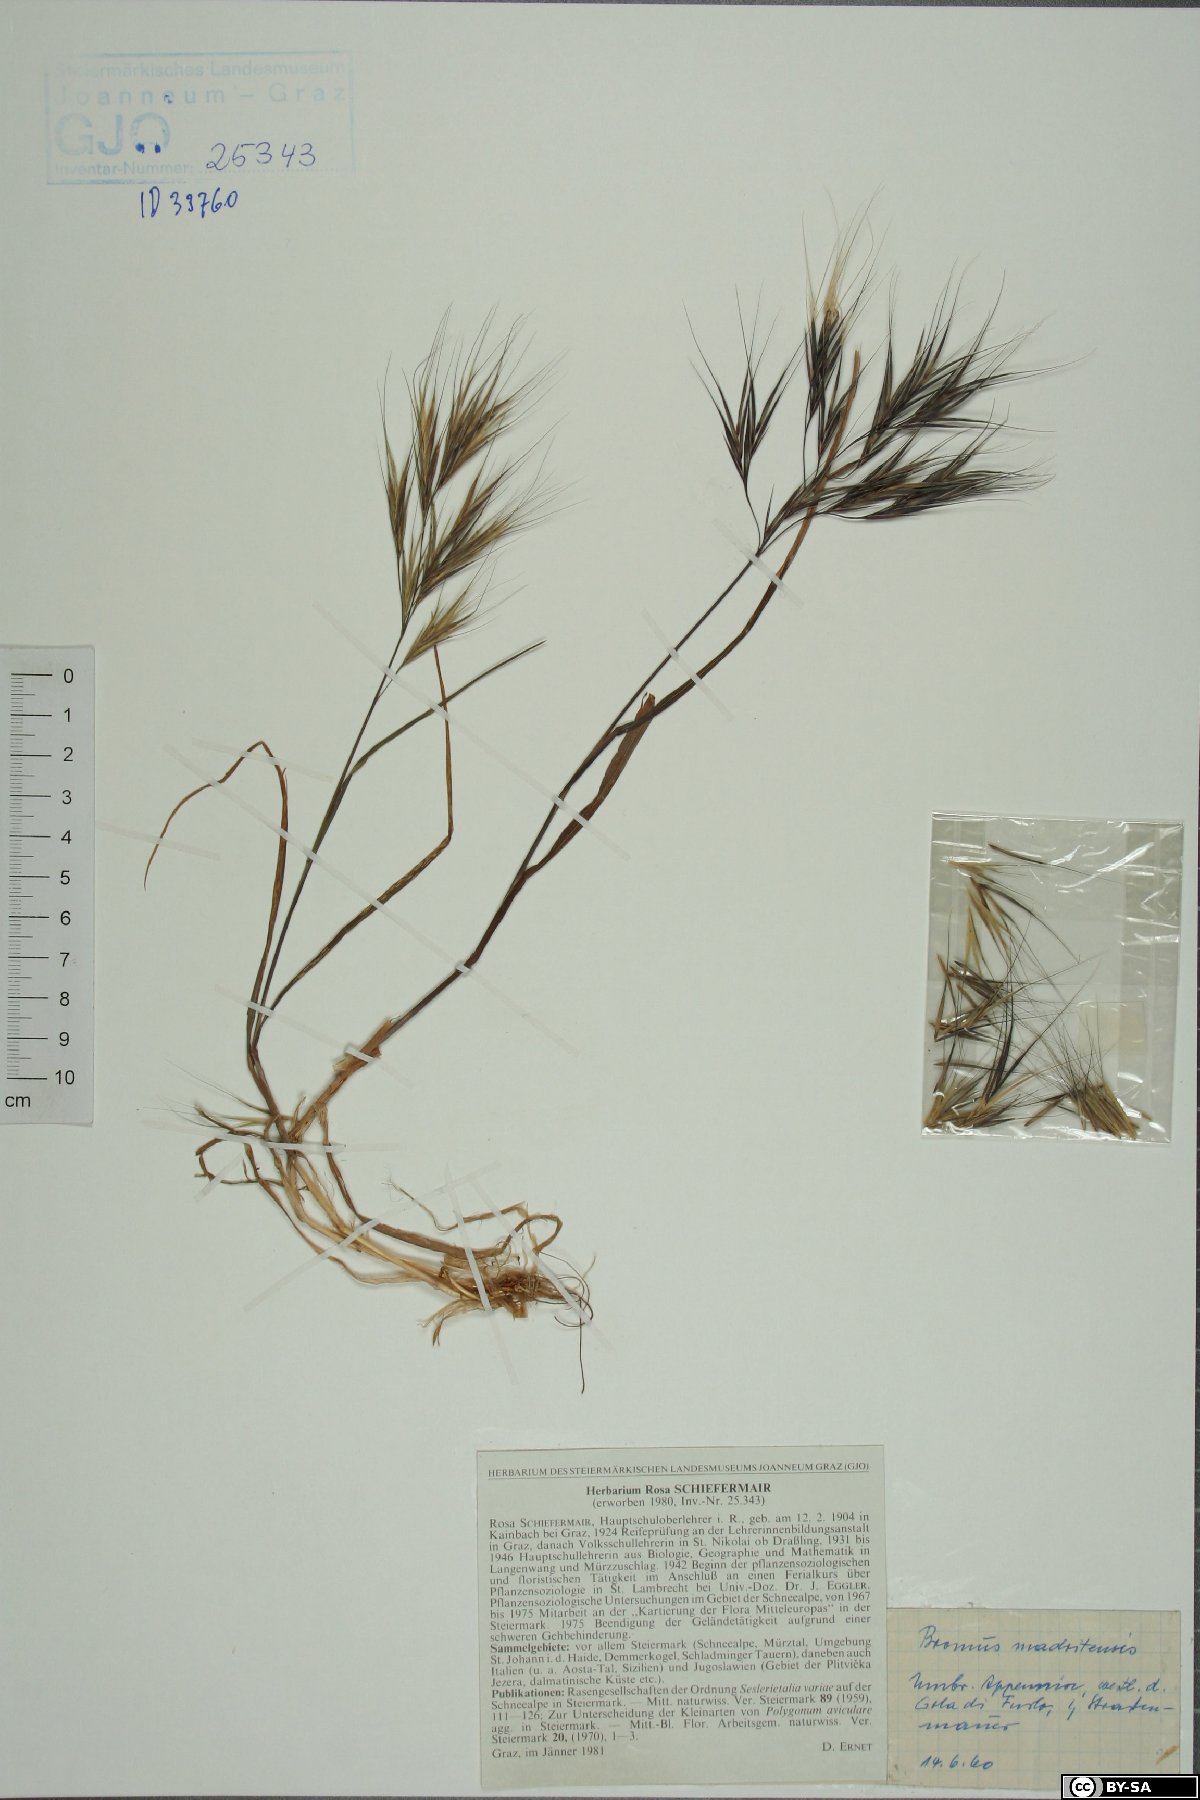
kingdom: Plantae
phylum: Tracheophyta
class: Liliopsida
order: Poales
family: Poaceae
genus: Bromus
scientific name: Bromus madritensis
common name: Compact brome
